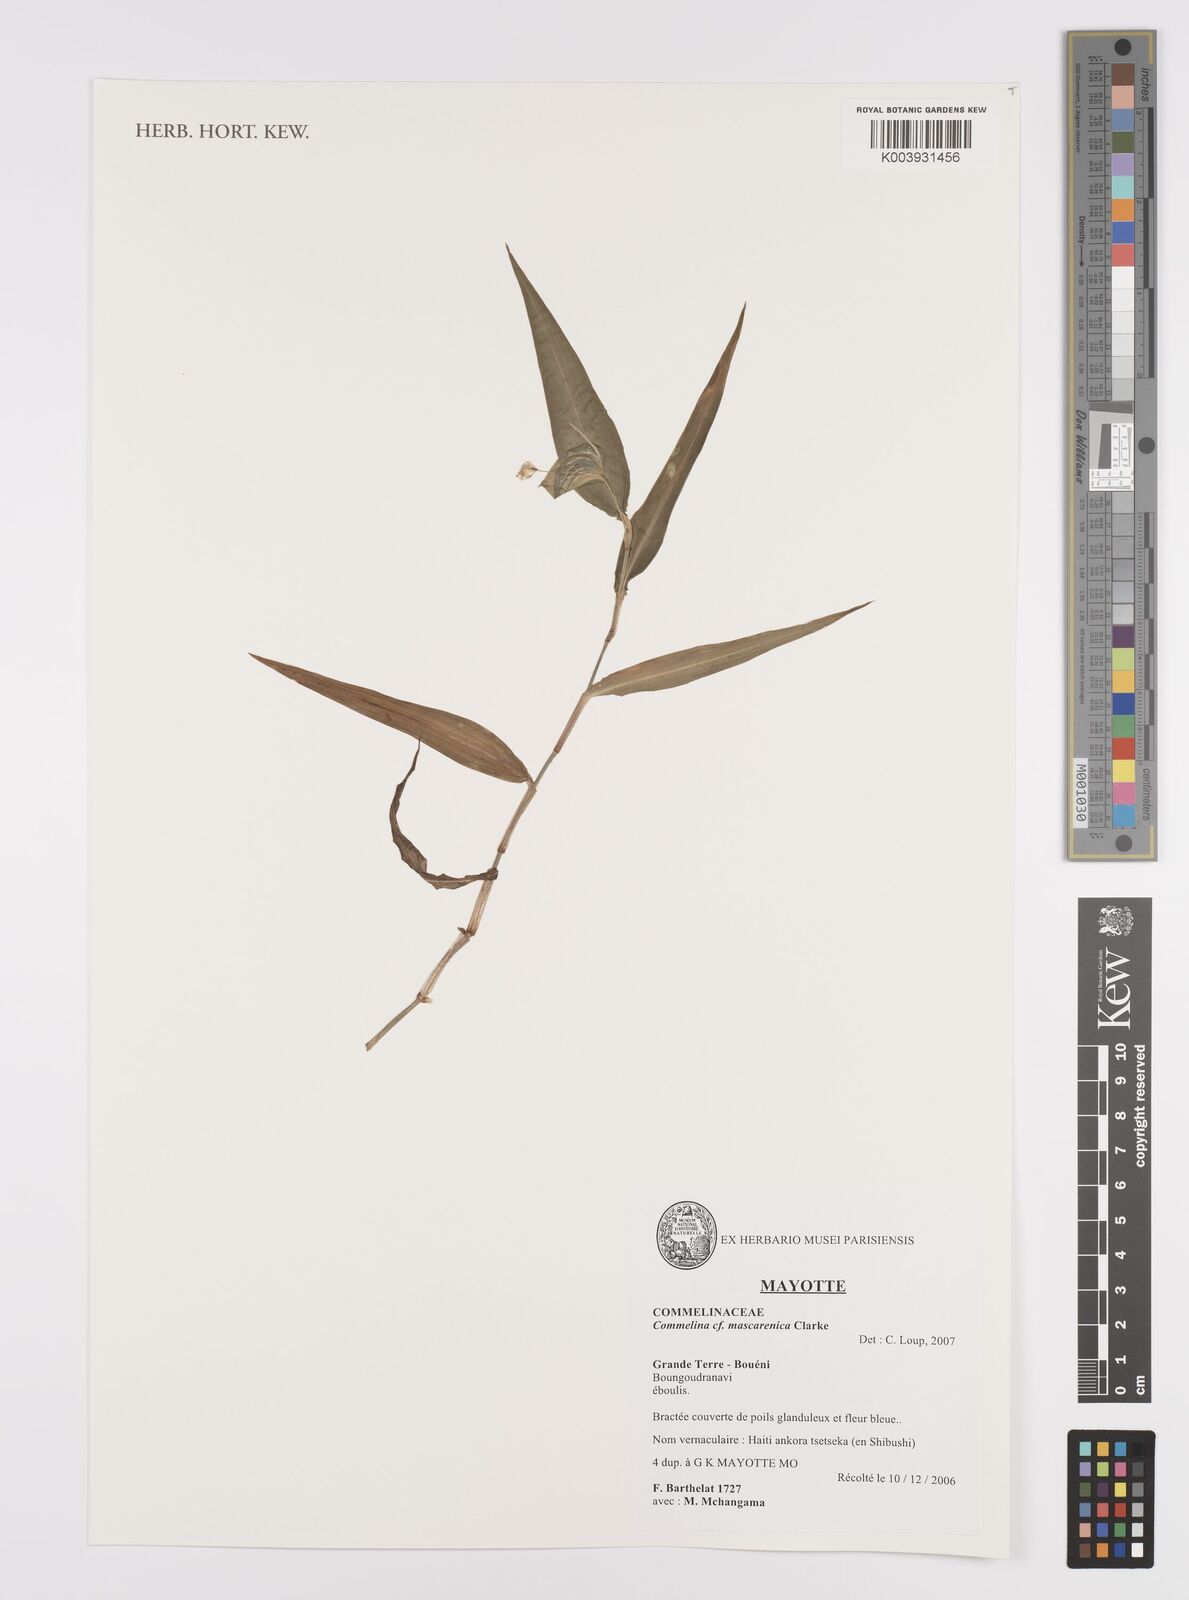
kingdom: Plantae
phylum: Tracheophyta
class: Liliopsida
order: Commelinales
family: Commelinaceae
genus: Commelina
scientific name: Commelina mascarenica
